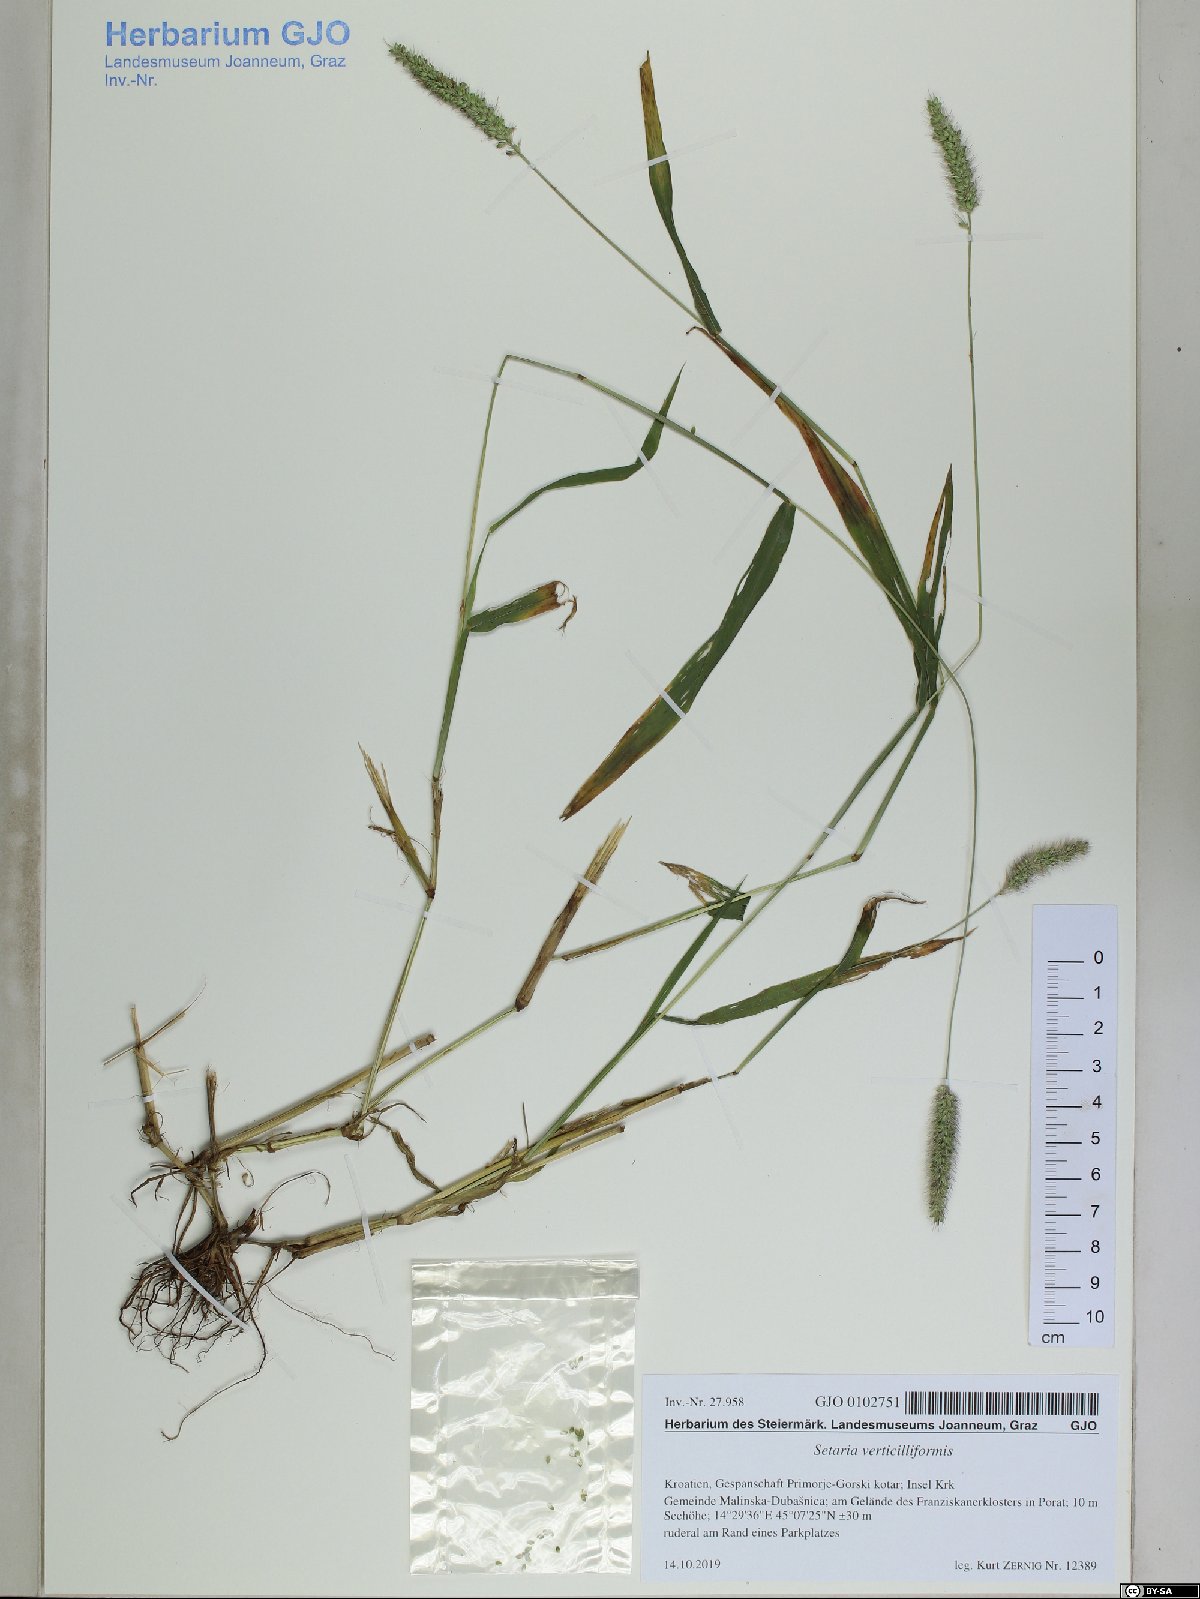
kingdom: Plantae
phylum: Tracheophyta
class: Liliopsida
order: Poales
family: Poaceae
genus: Setaria
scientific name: Setaria verticillata
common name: Hooked bristlegrass
